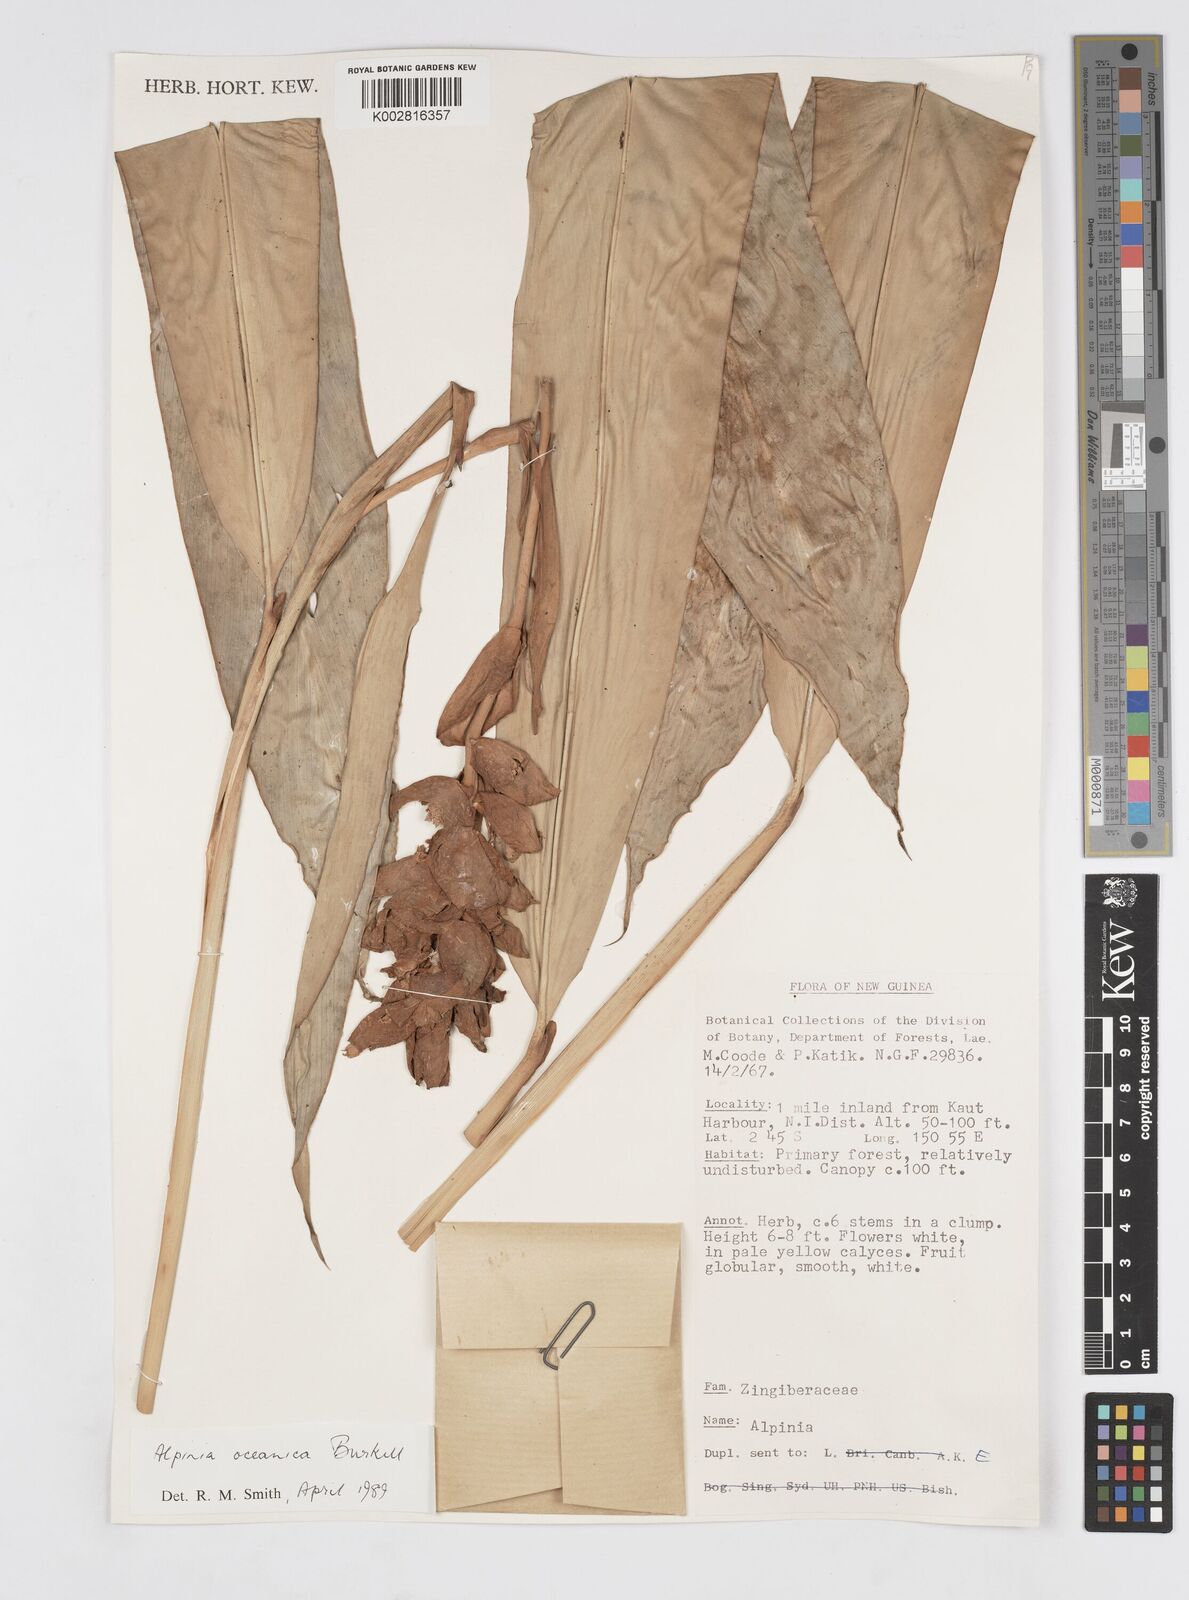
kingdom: Plantae
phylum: Tracheophyta
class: Liliopsida
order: Zingiberales
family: Zingiberaceae
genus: Alpinia
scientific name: Alpinia oceanica
